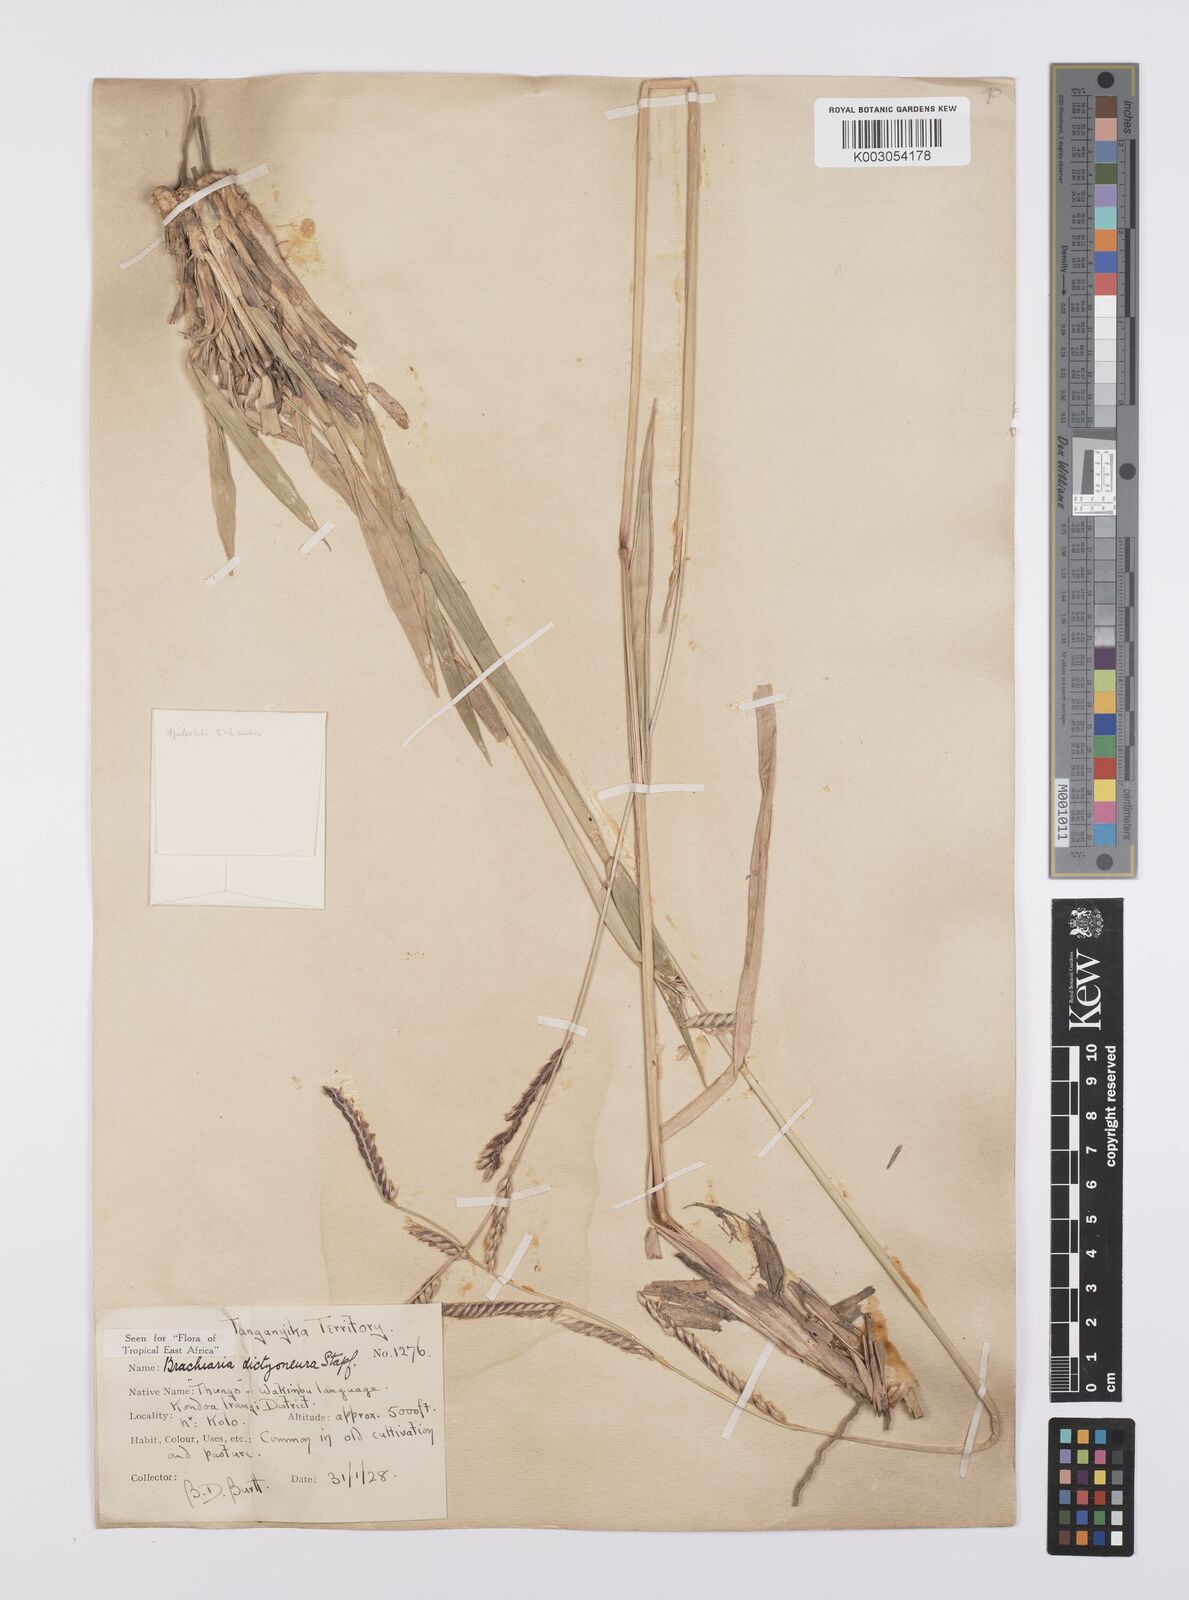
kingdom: Plantae
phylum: Tracheophyta
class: Liliopsida
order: Poales
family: Poaceae
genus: Urochloa
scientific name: Urochloa dictyoneura
